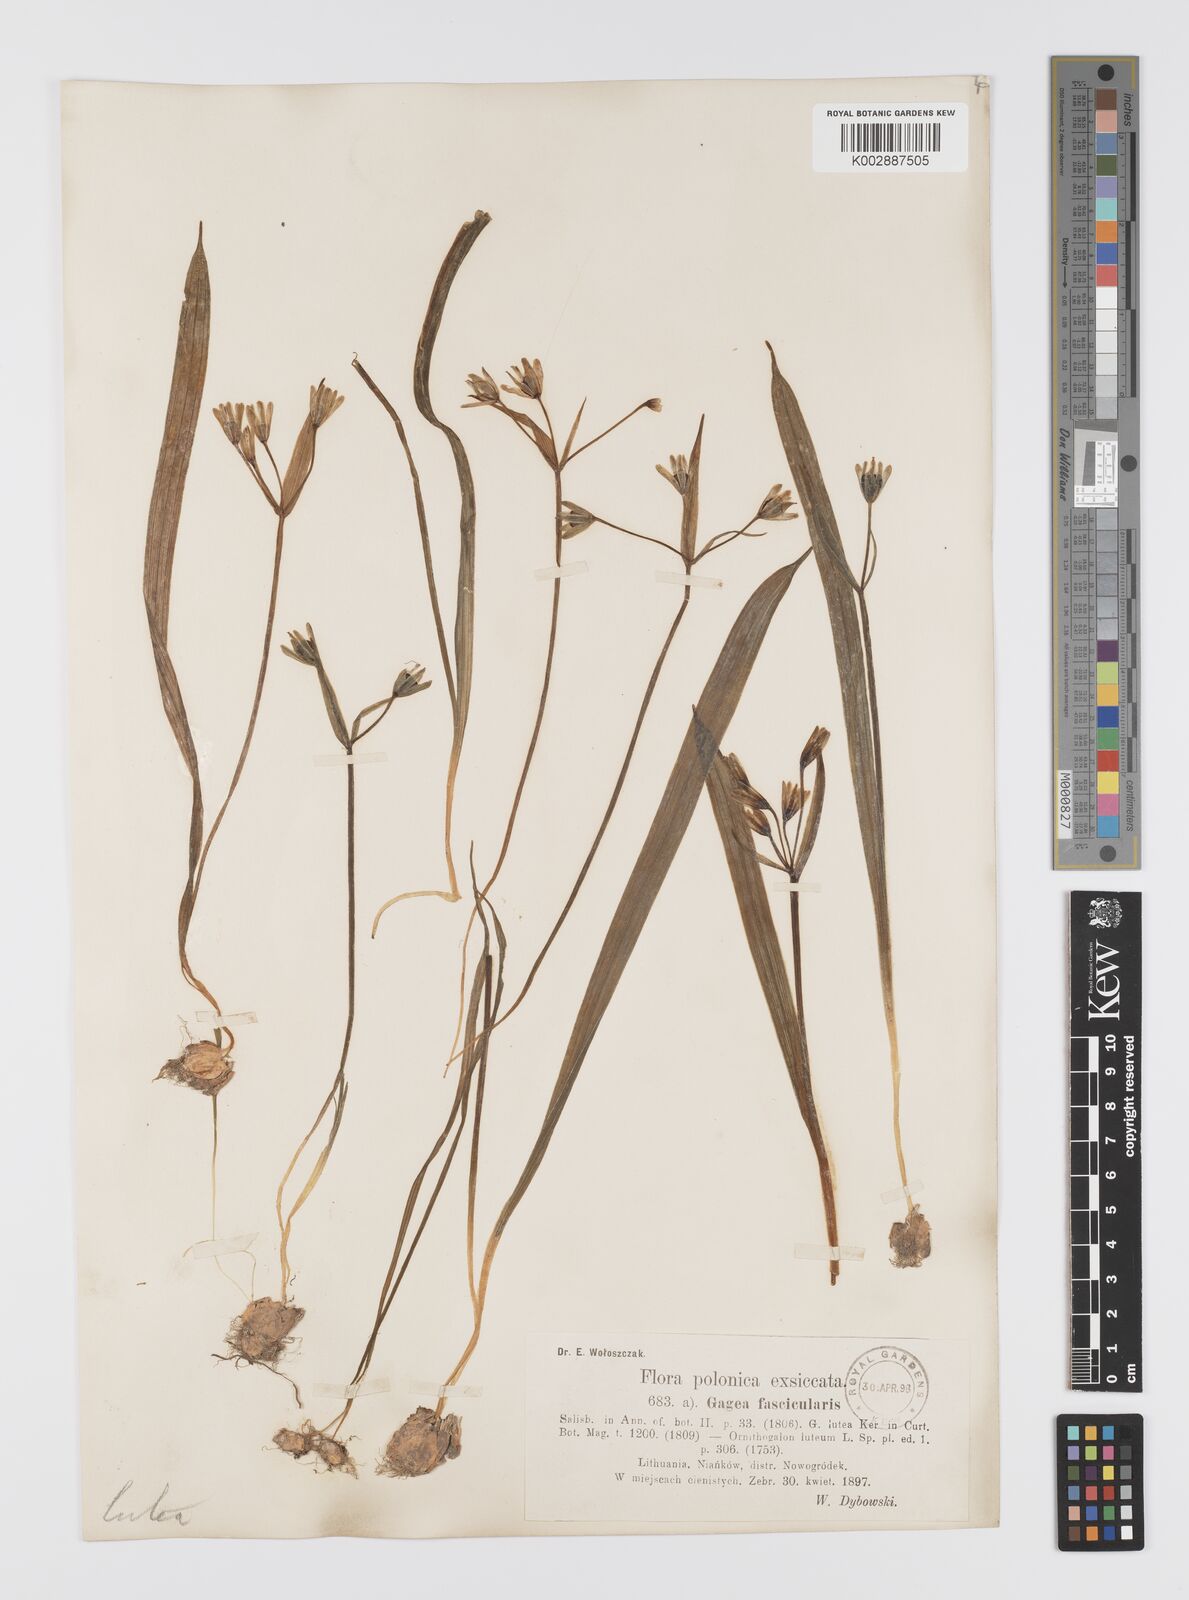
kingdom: Plantae
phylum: Tracheophyta
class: Liliopsida
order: Liliales
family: Liliaceae
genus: Gagea
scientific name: Gagea lutea
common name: Yellow star-of-bethlehem
